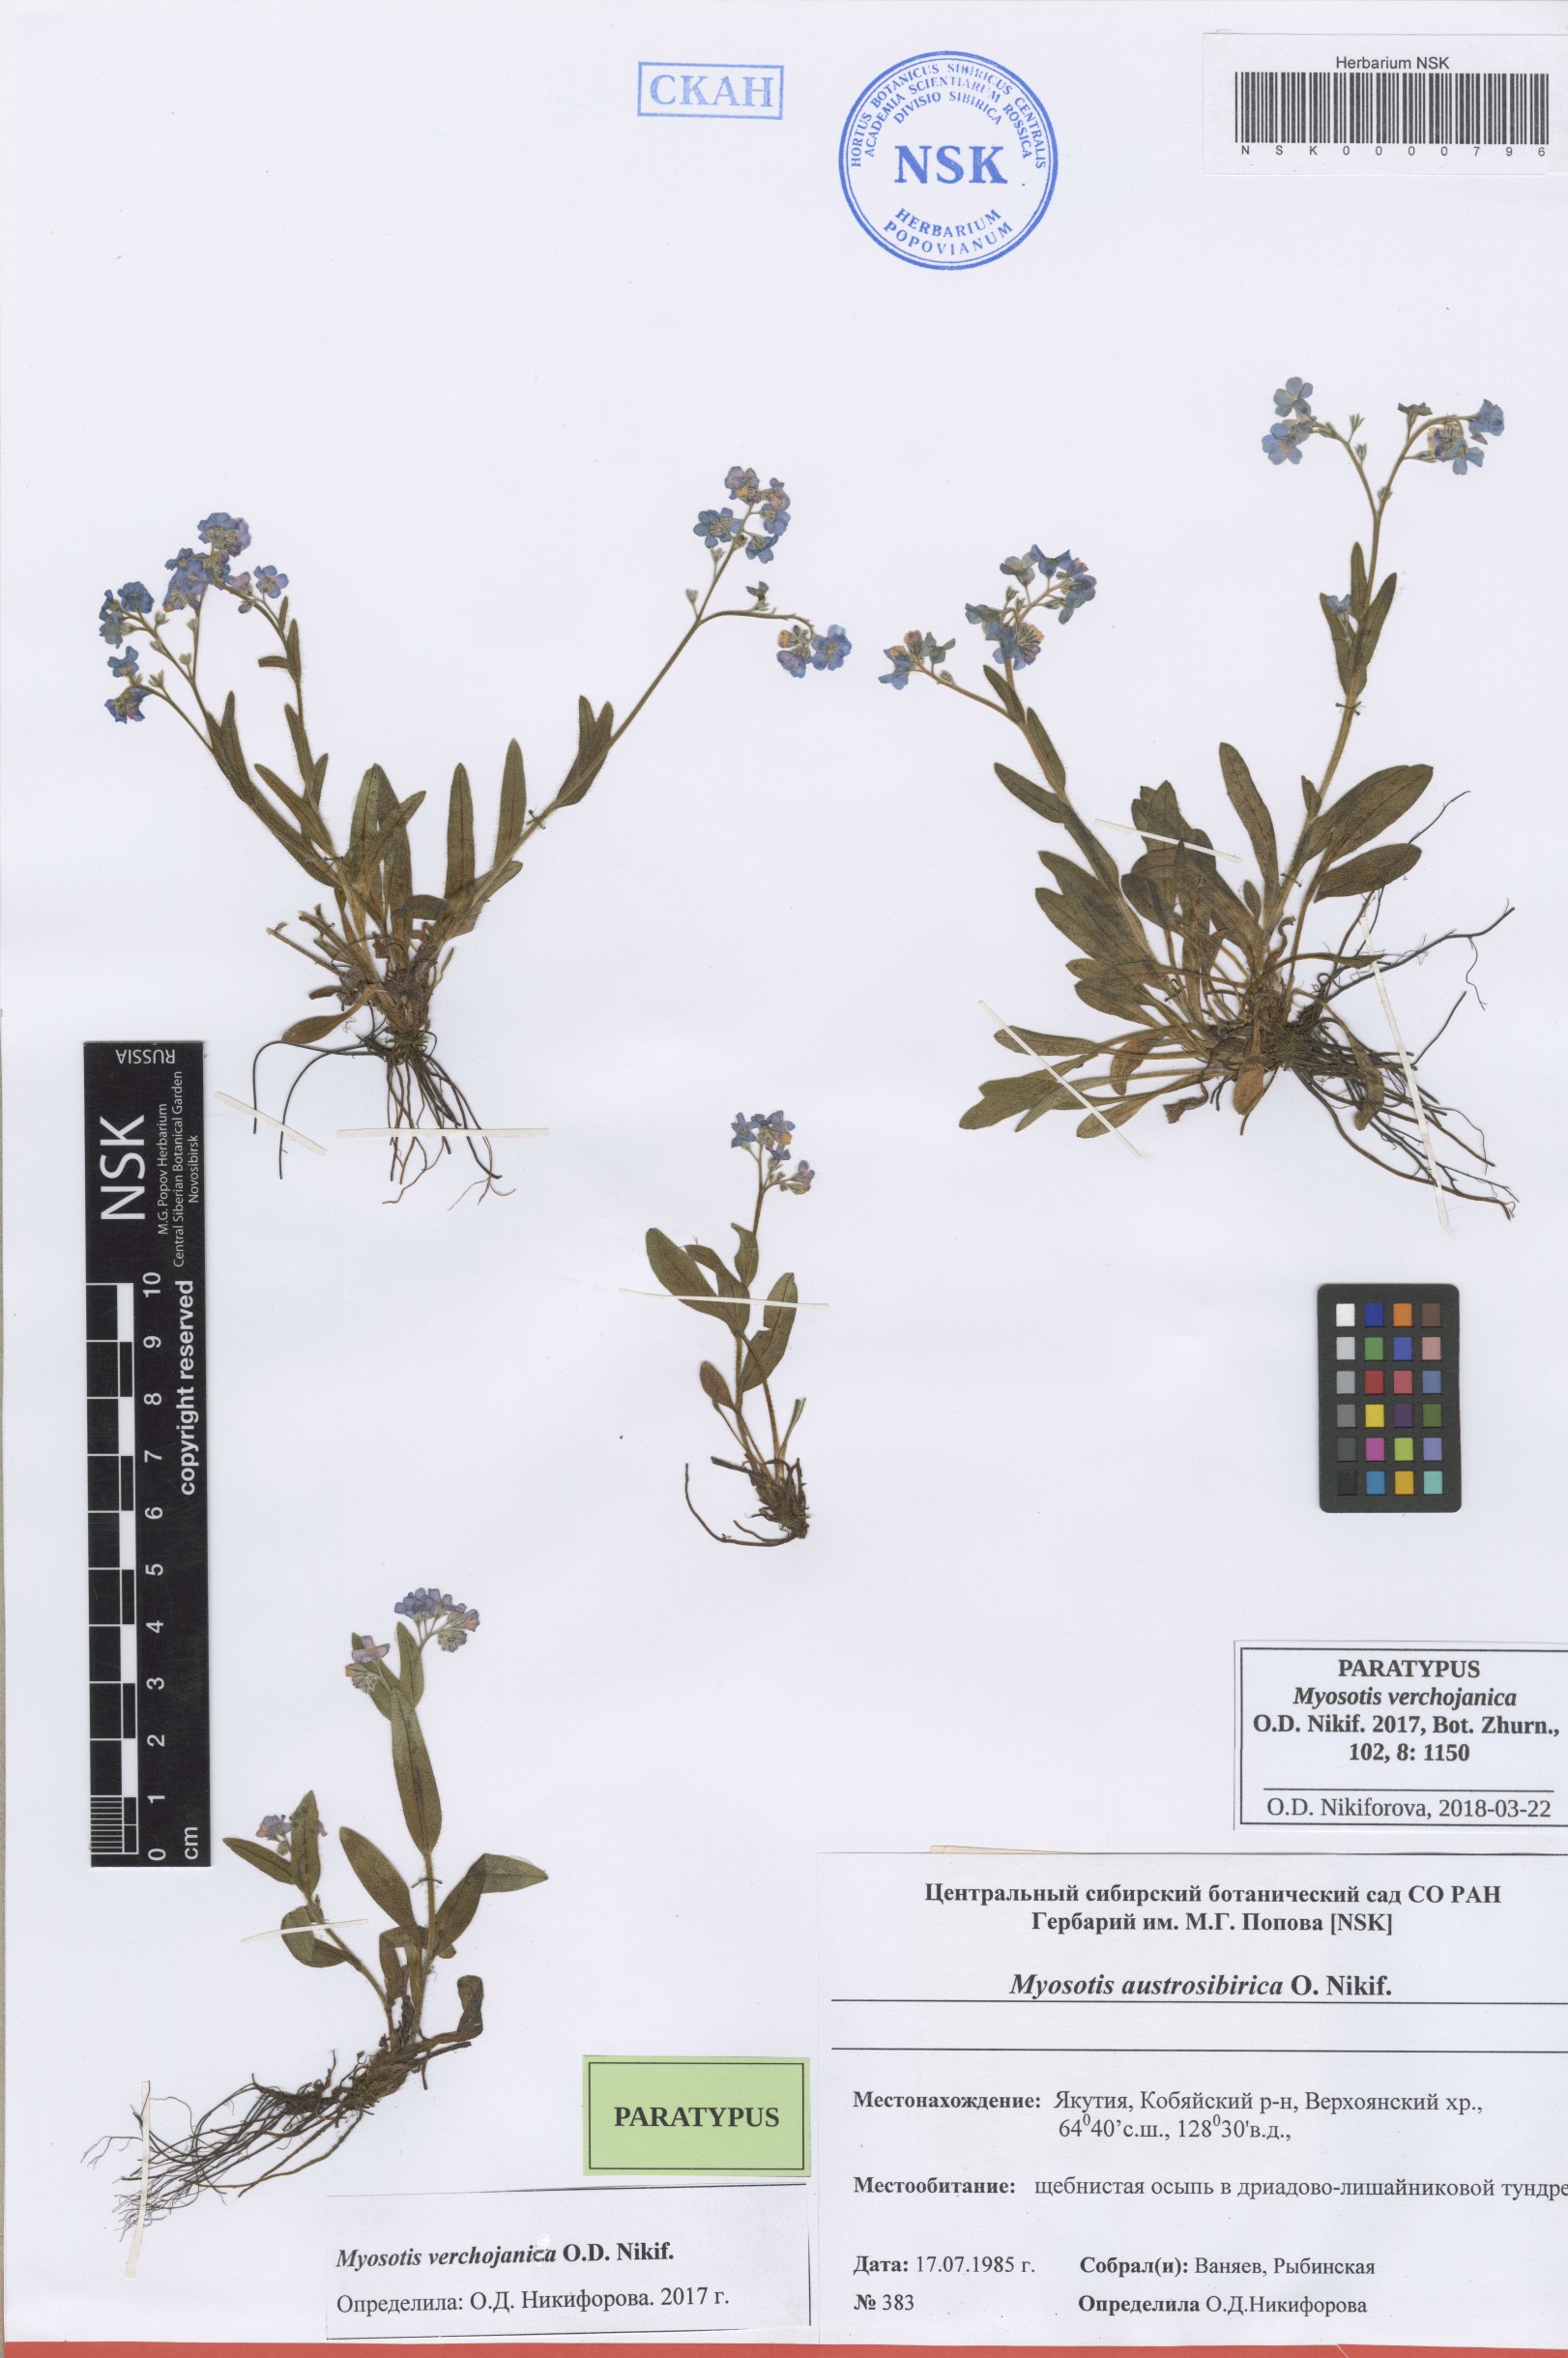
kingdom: Plantae
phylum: Tracheophyta
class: Magnoliopsida
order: Boraginales
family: Boraginaceae
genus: Myosotis
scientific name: Myosotis
